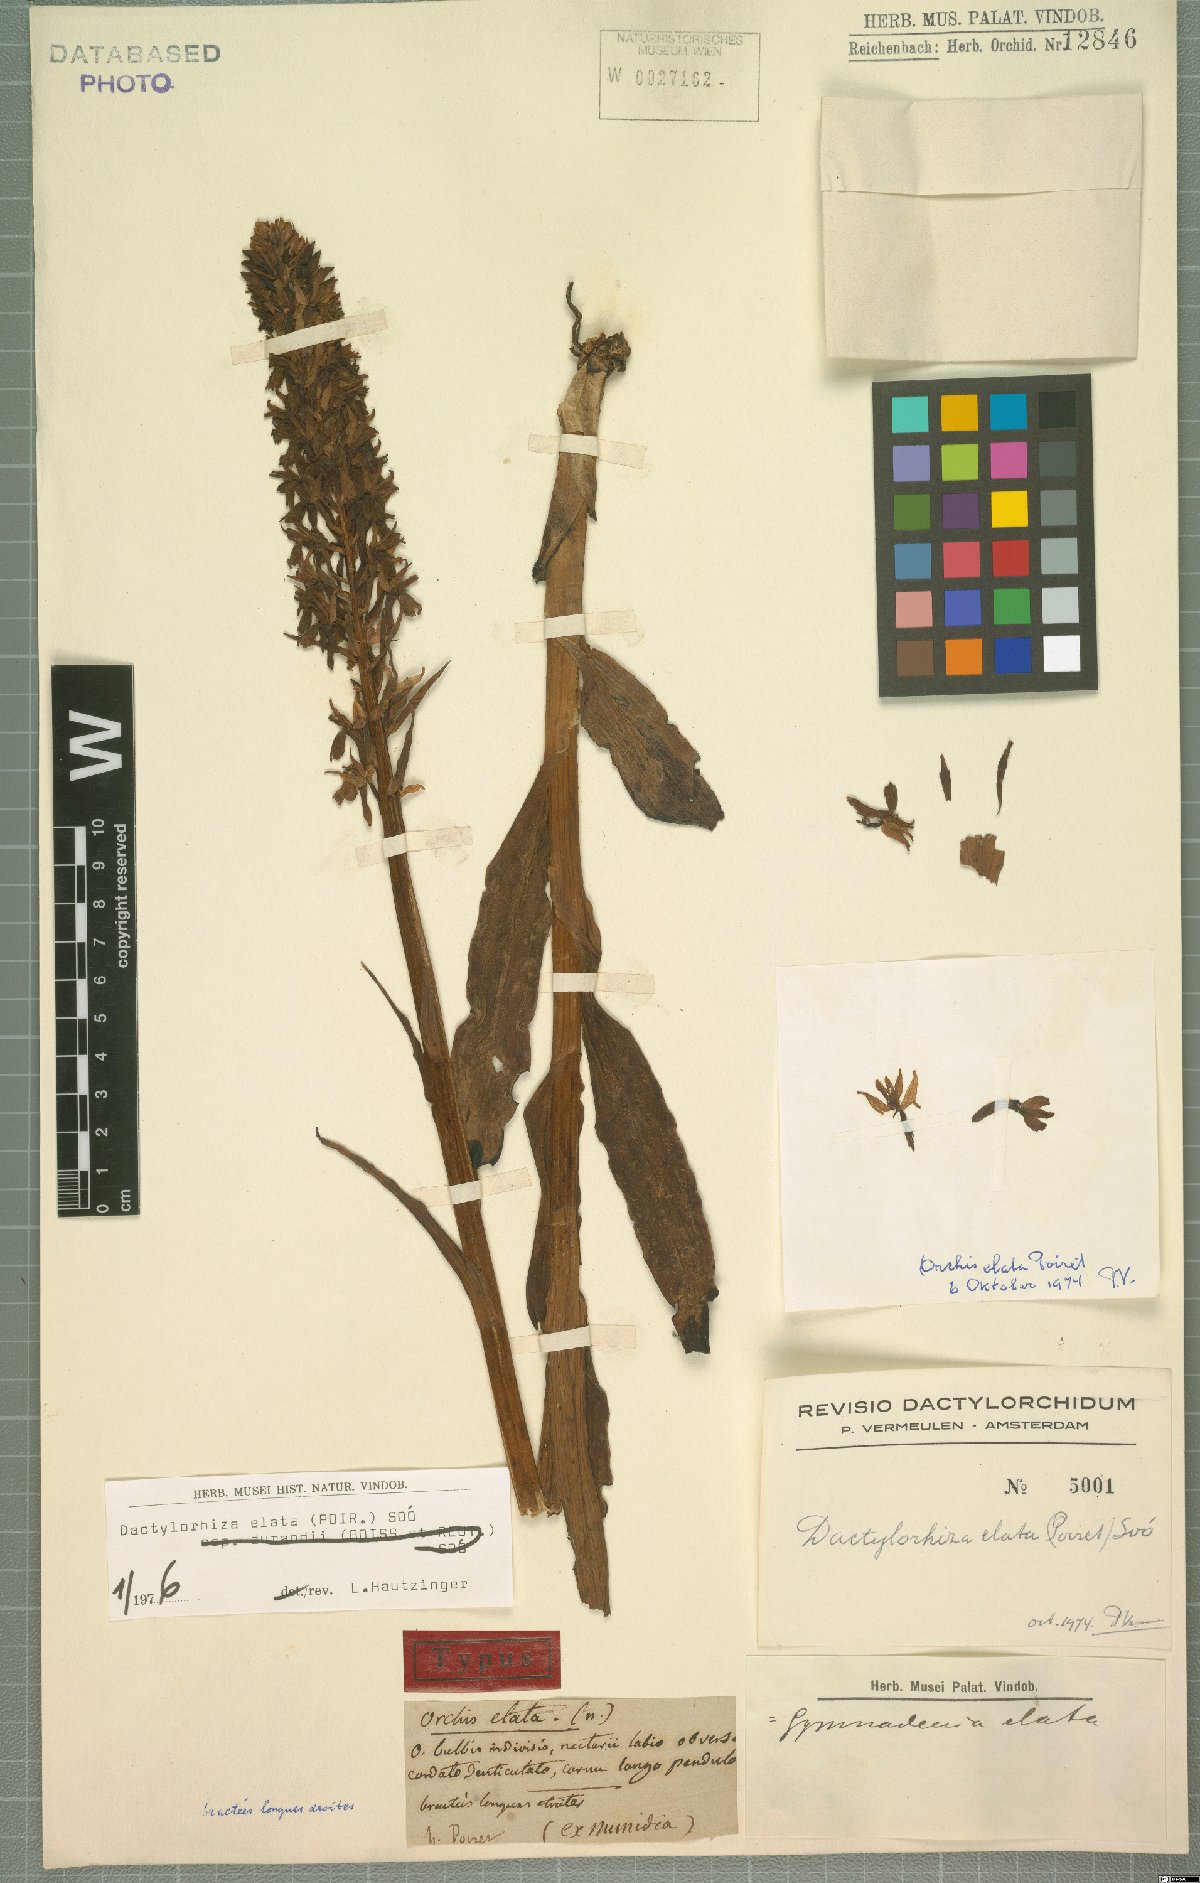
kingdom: Plantae
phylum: Tracheophyta
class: Liliopsida
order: Asparagales
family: Orchidaceae
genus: Dactylorhiza
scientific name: Dactylorhiza elata
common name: Stately dactylorhiza
